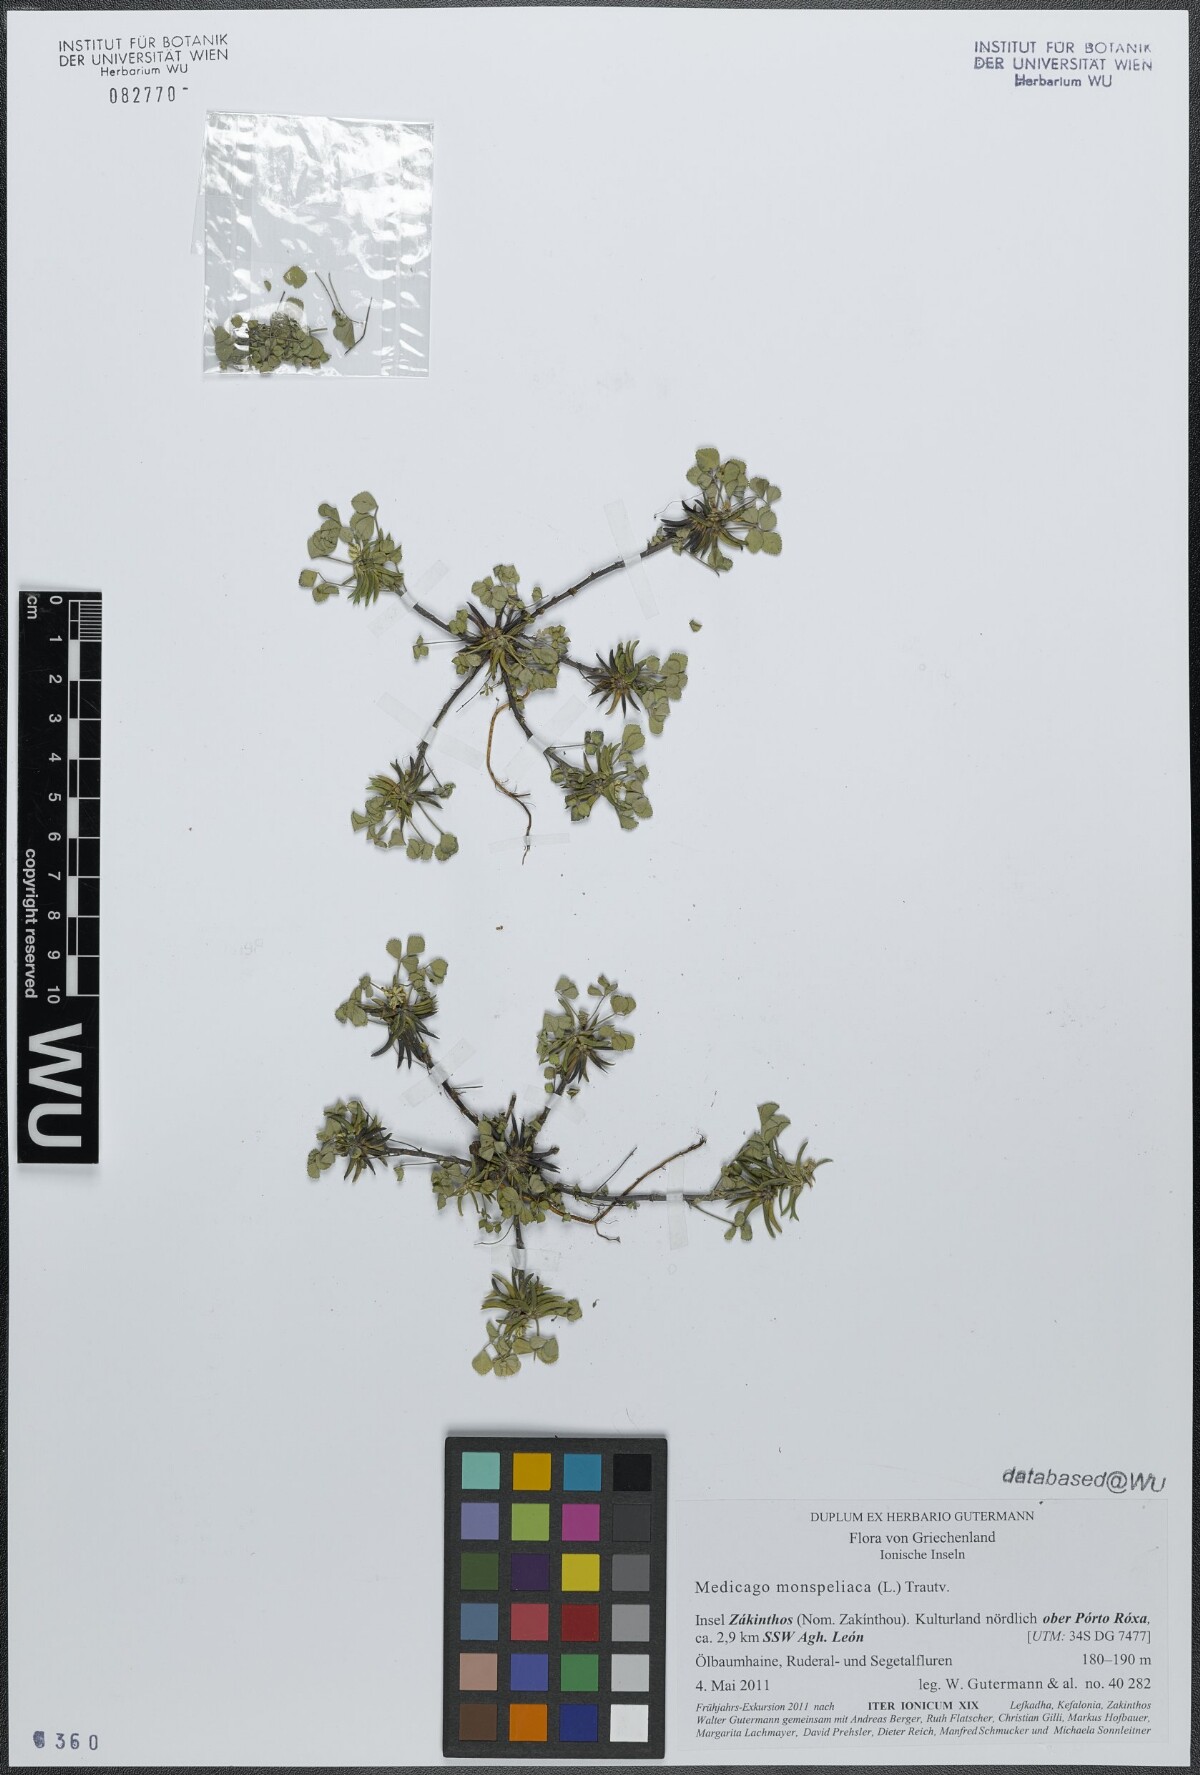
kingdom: Plantae
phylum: Tracheophyta
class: Magnoliopsida
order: Fabales
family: Fabaceae
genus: Medicago
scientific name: Medicago monspeliaca
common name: Hairy medick
